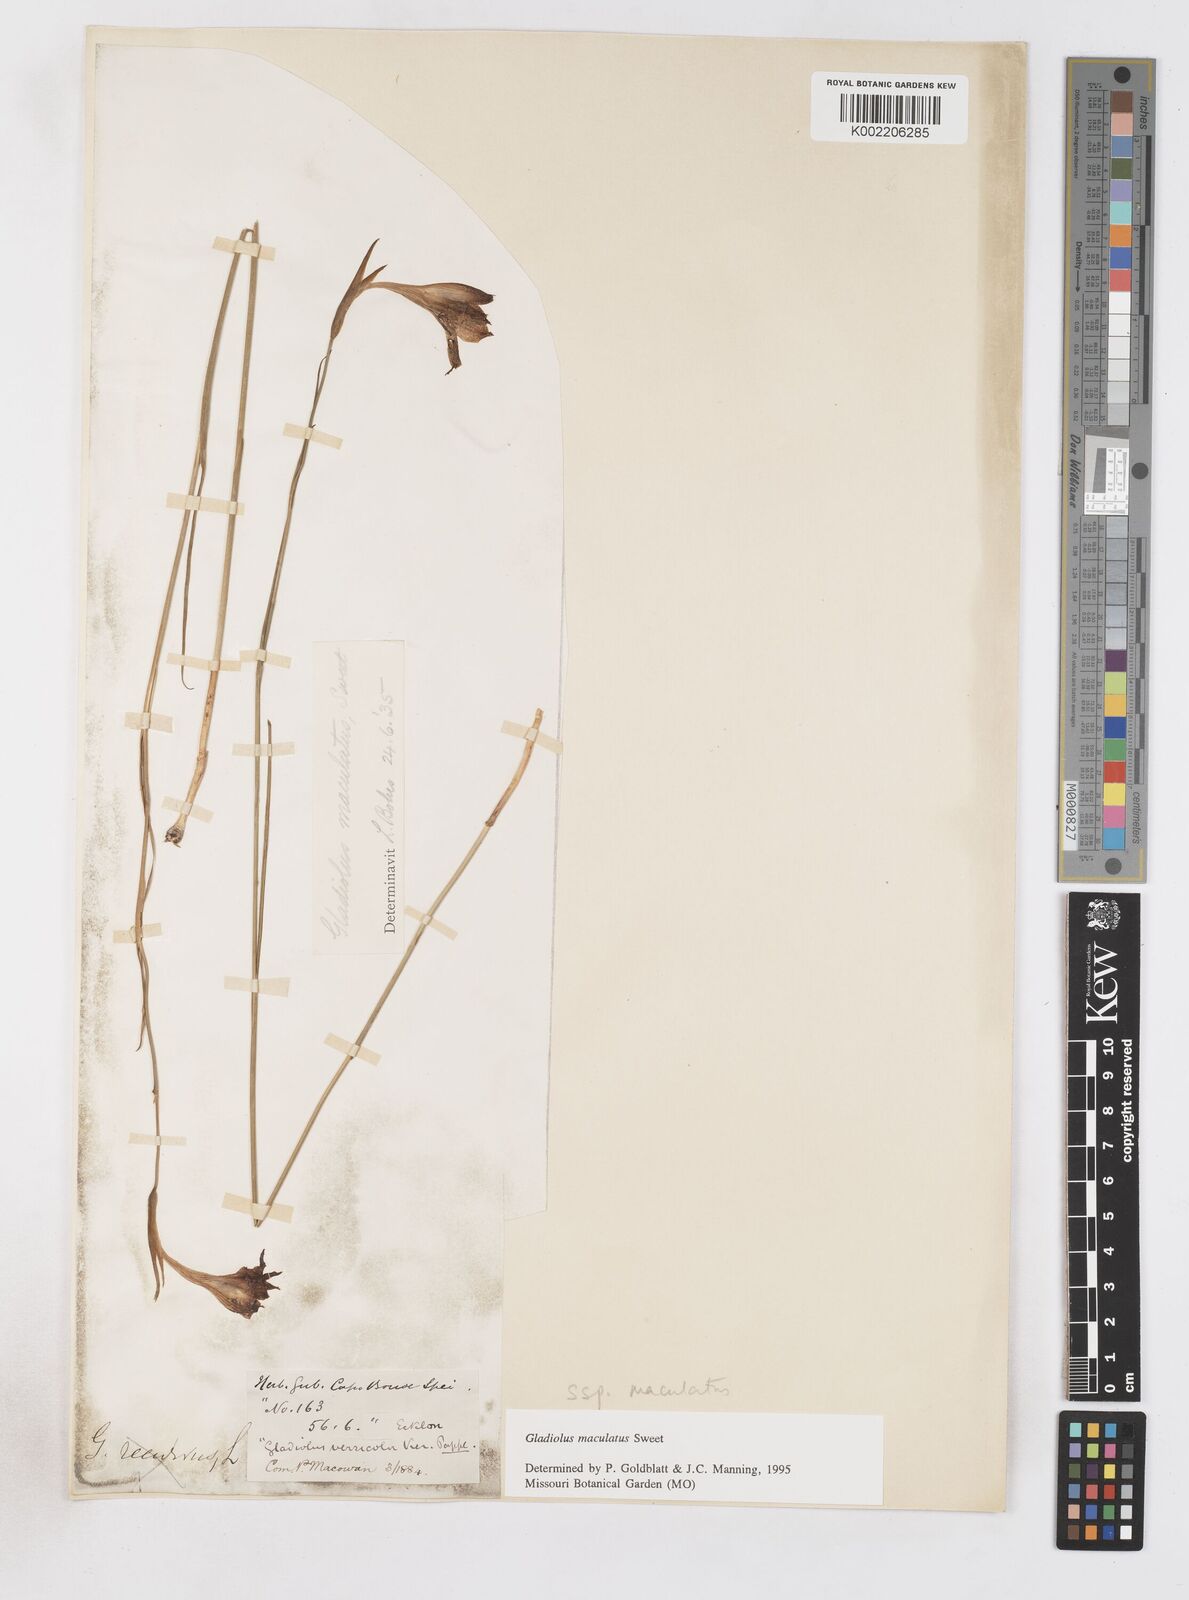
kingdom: Plantae
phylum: Tracheophyta
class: Liliopsida
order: Asparagales
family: Iridaceae
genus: Gladiolus
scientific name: Gladiolus maculatus
